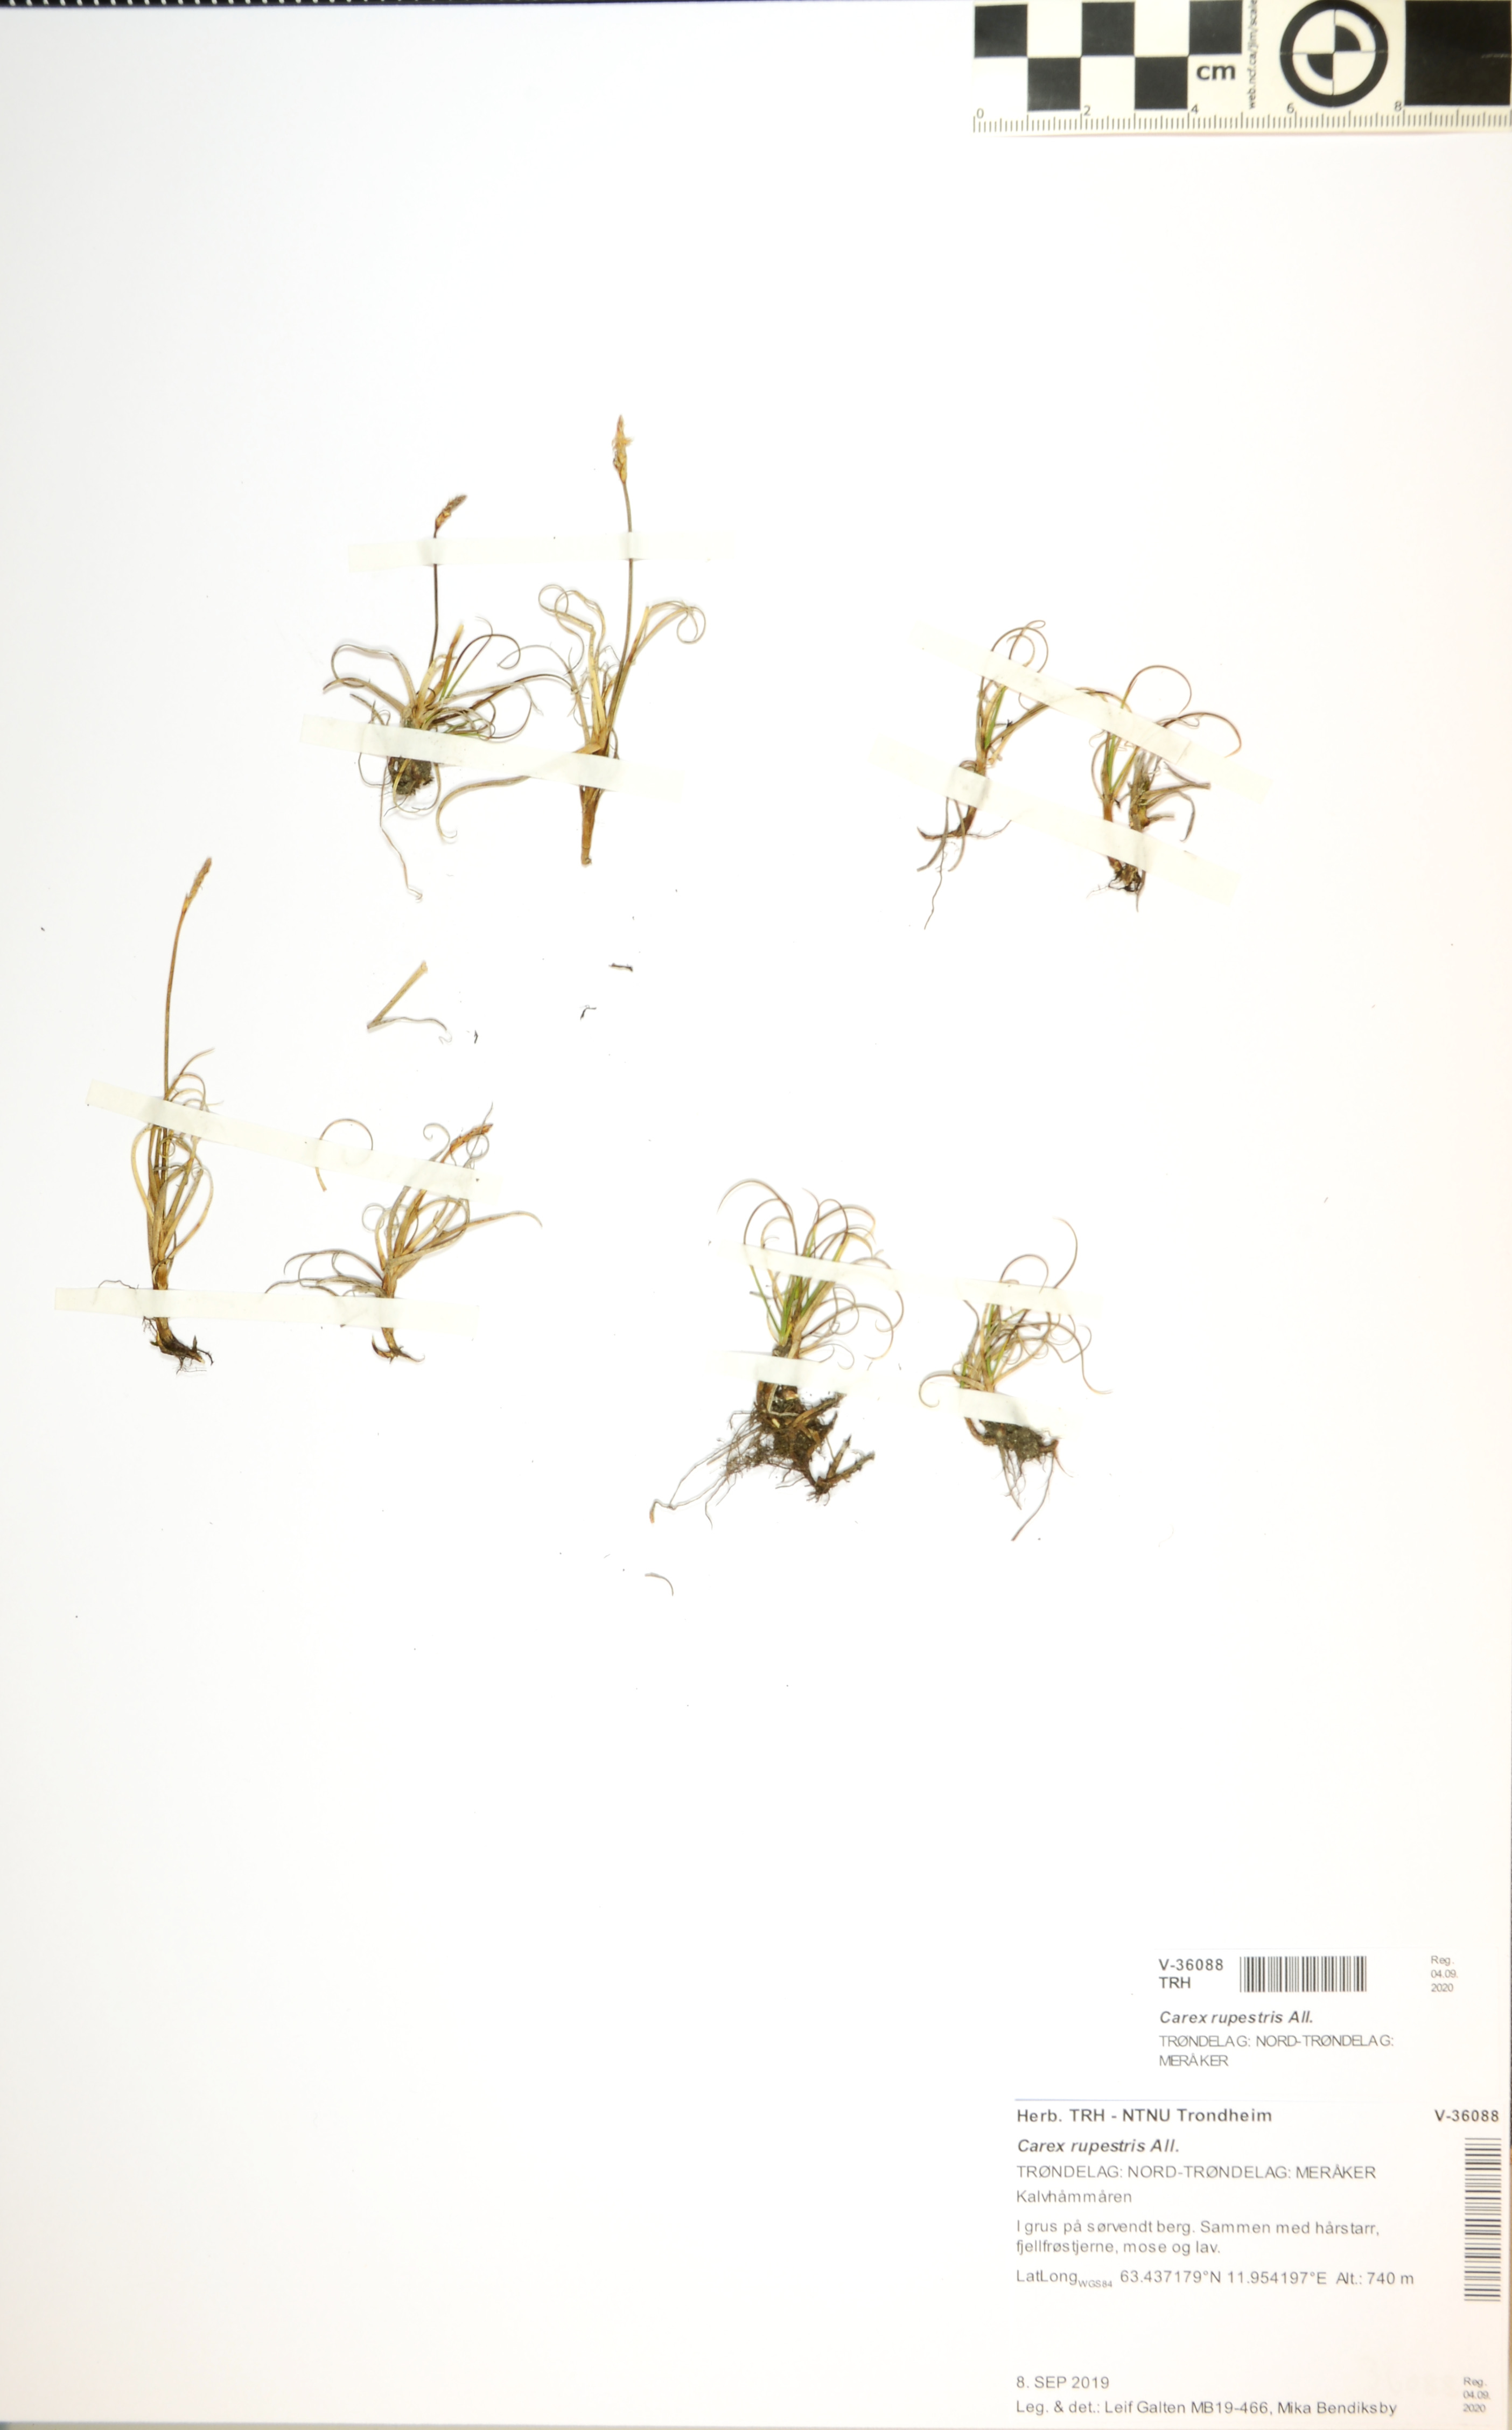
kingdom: Plantae
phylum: Tracheophyta
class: Liliopsida
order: Poales
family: Cyperaceae
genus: Carex
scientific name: Carex rupestris
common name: Rock sedge
